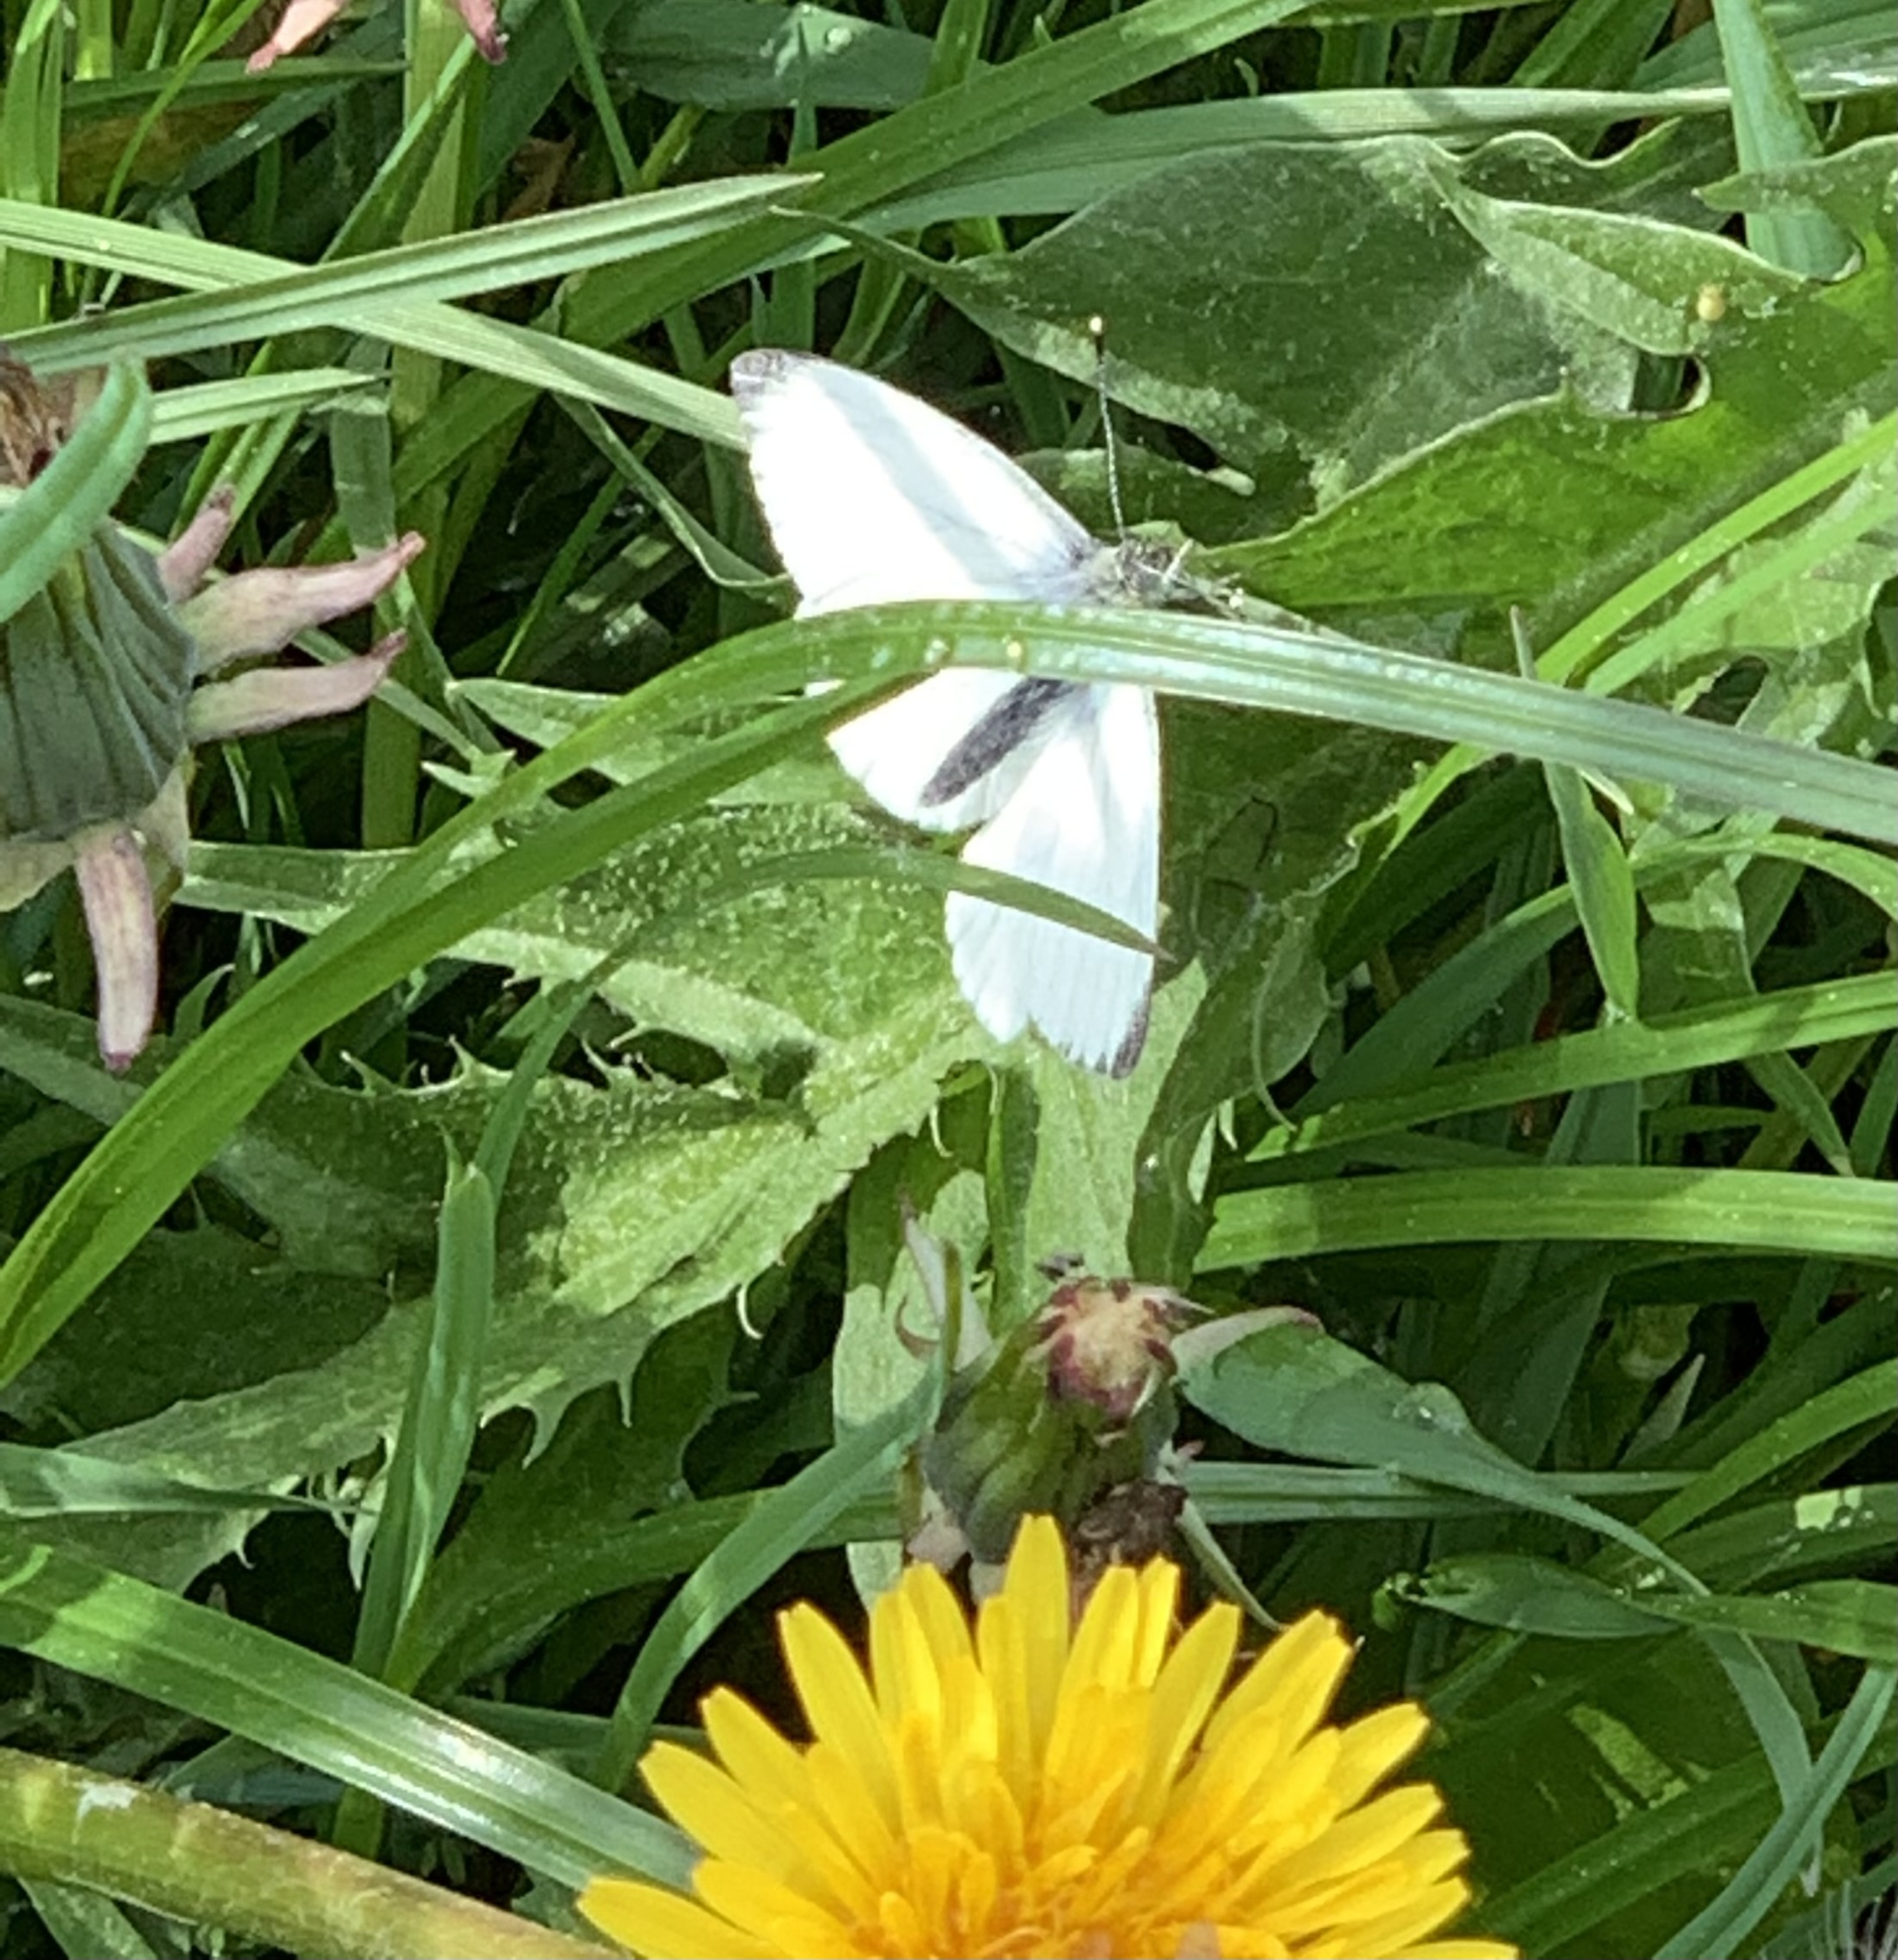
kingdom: Animalia
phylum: Arthropoda
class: Insecta
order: Lepidoptera
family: Pieridae
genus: Pieris
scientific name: Pieris napi
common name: Grønåret kålsommerfugl
